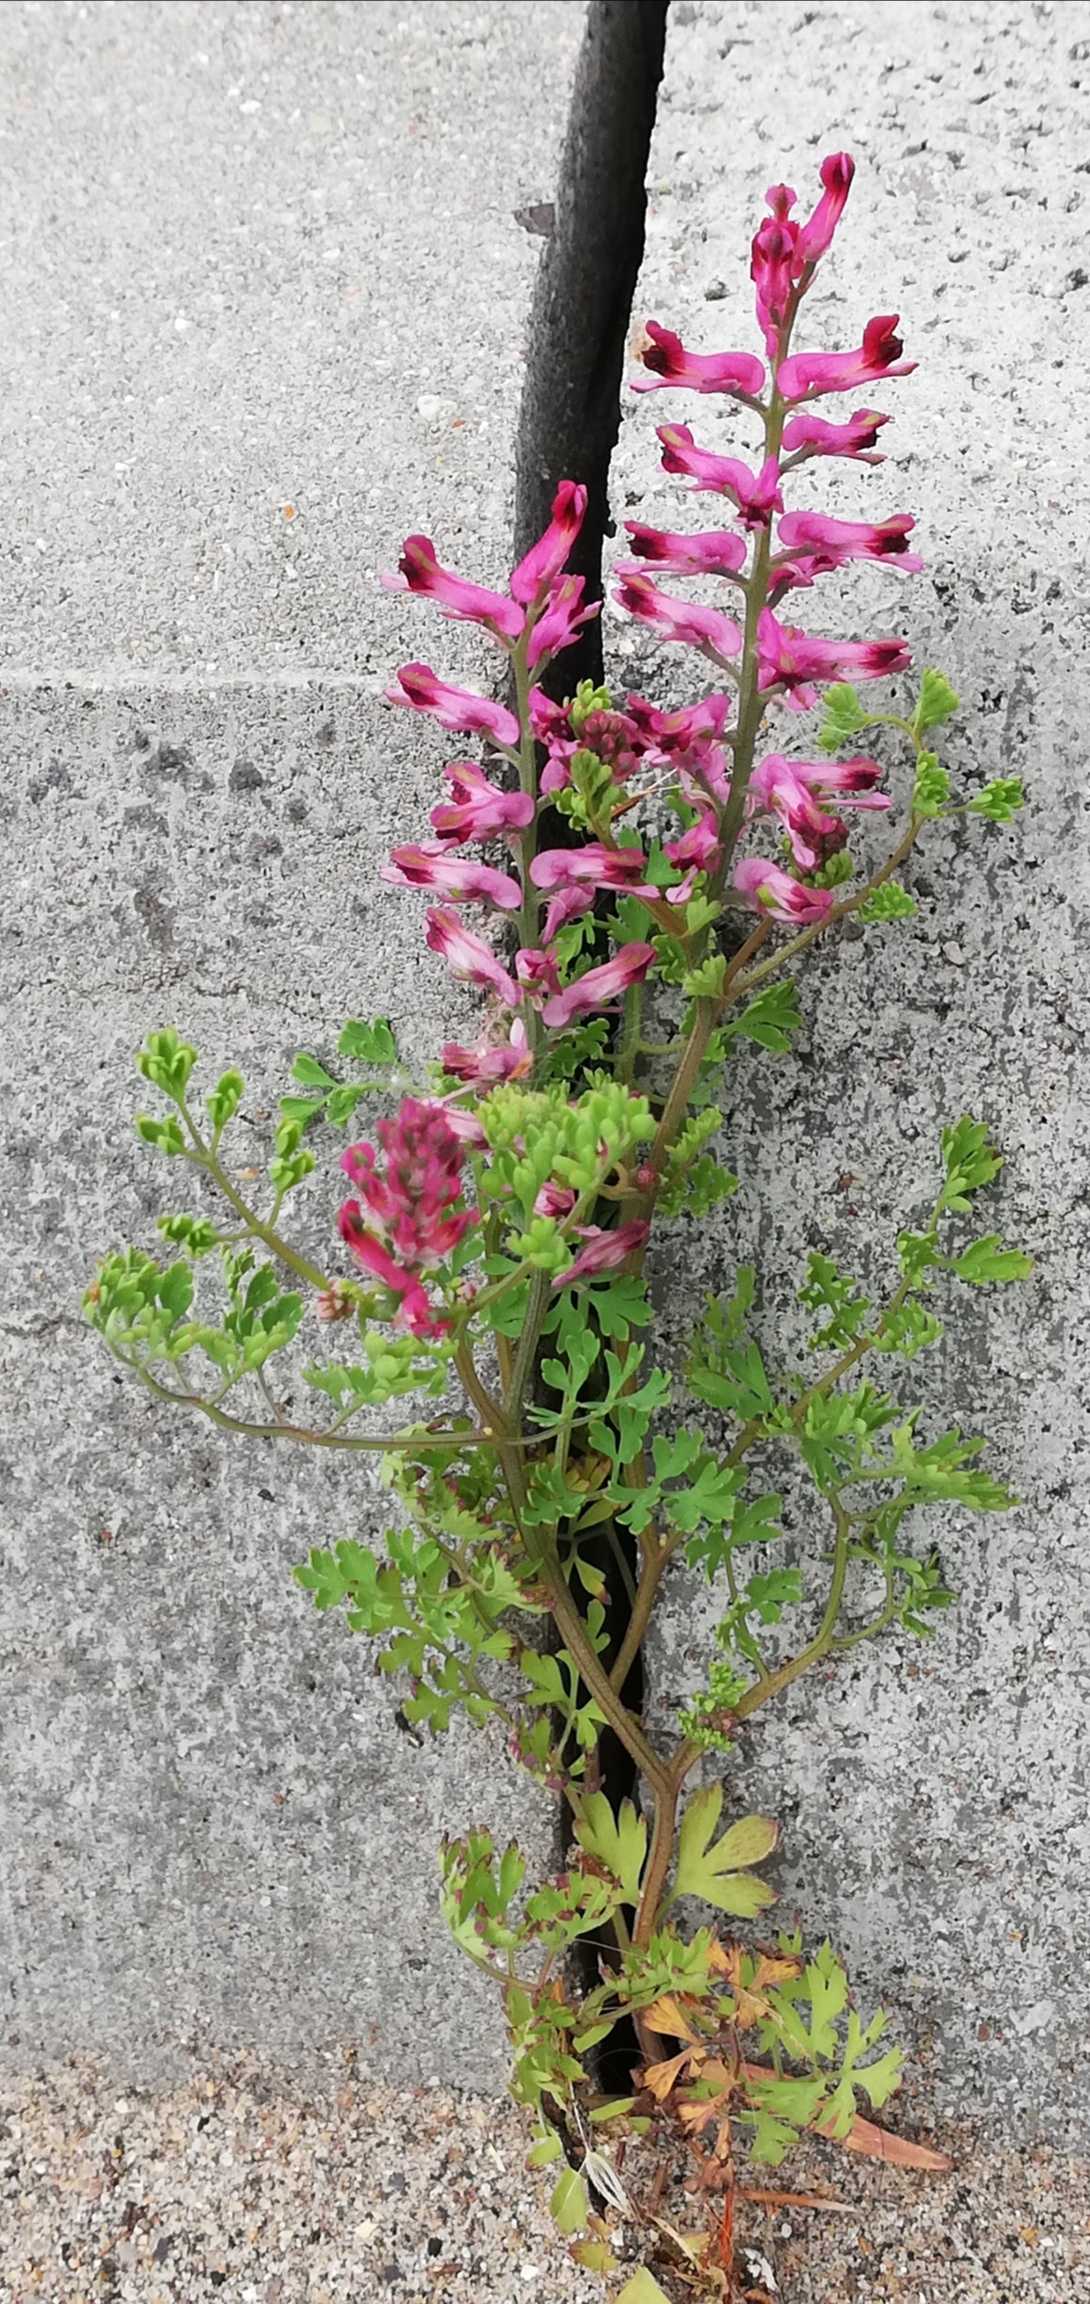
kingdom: Plantae
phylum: Tracheophyta
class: Magnoliopsida
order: Ranunculales
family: Papaveraceae
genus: Fumaria
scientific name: Fumaria officinalis
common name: Læge-jordrøg
